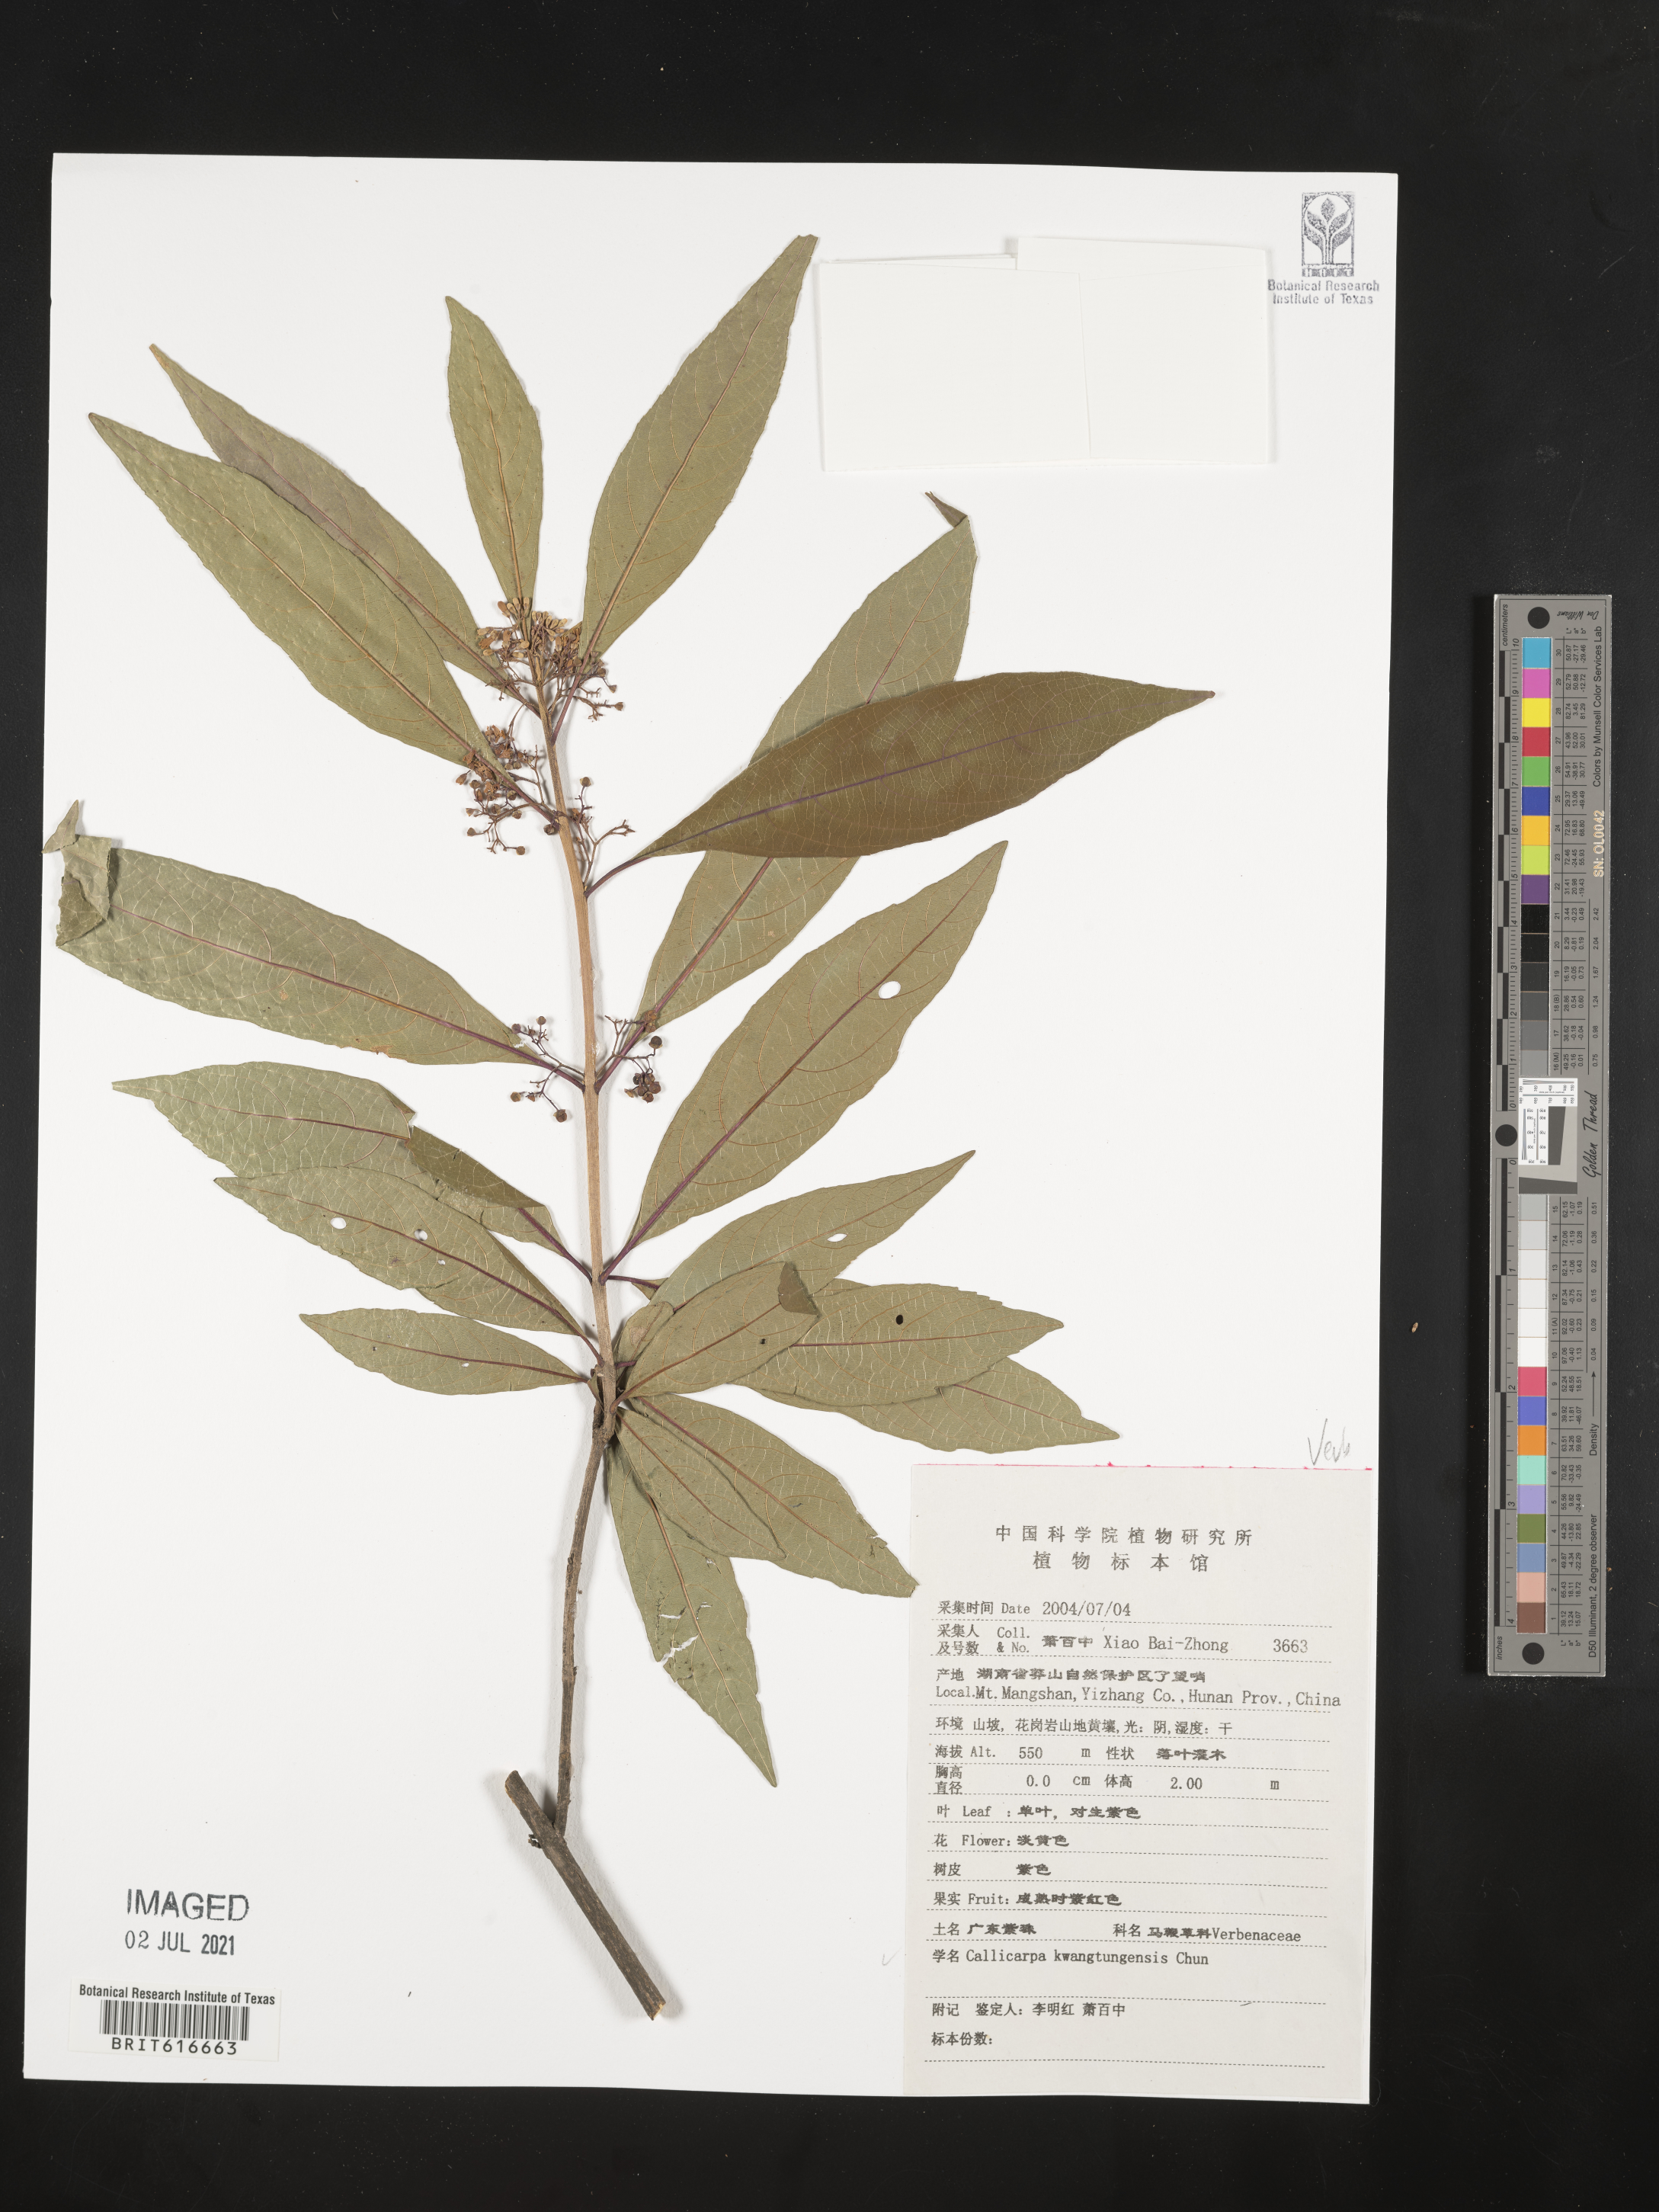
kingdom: Plantae
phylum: Tracheophyta
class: Magnoliopsida
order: Lamiales
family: Lamiaceae
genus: Callicarpa
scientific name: Callicarpa kwangtungensis
